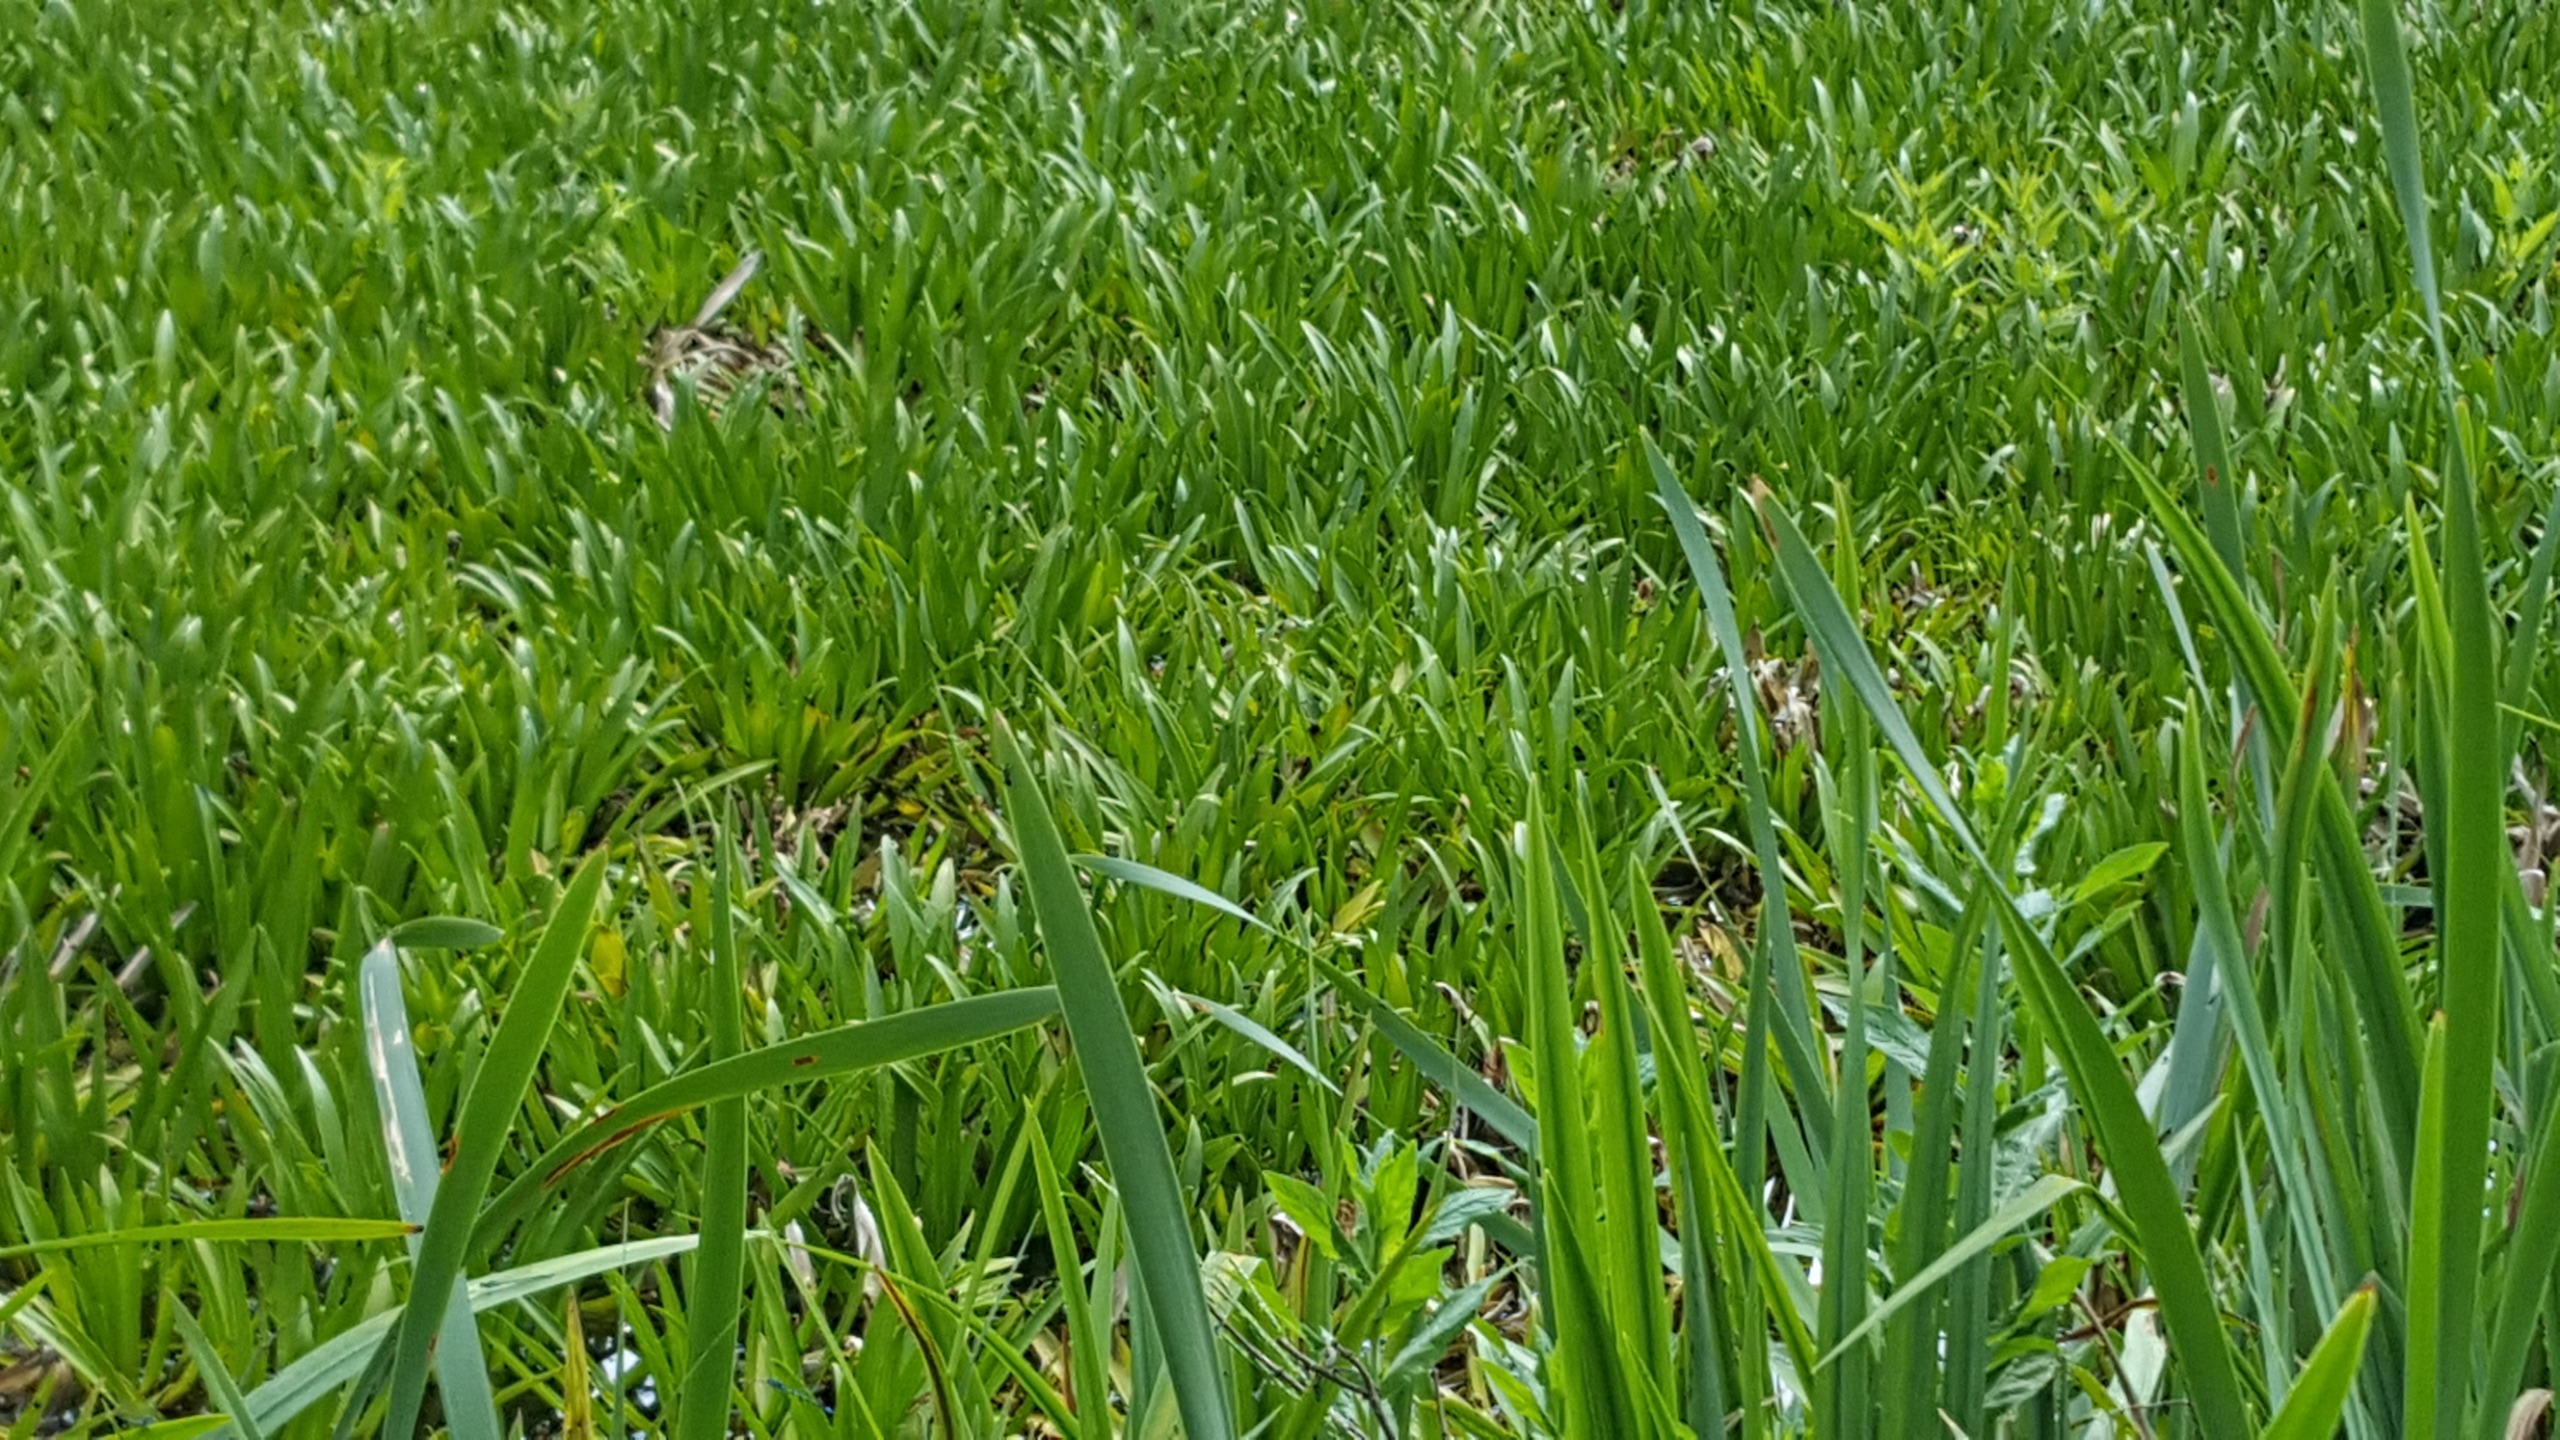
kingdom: Plantae
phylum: Tracheophyta
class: Liliopsida
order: Alismatales
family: Hydrocharitaceae
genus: Stratiotes
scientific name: Stratiotes aloides
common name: Krebseklo
